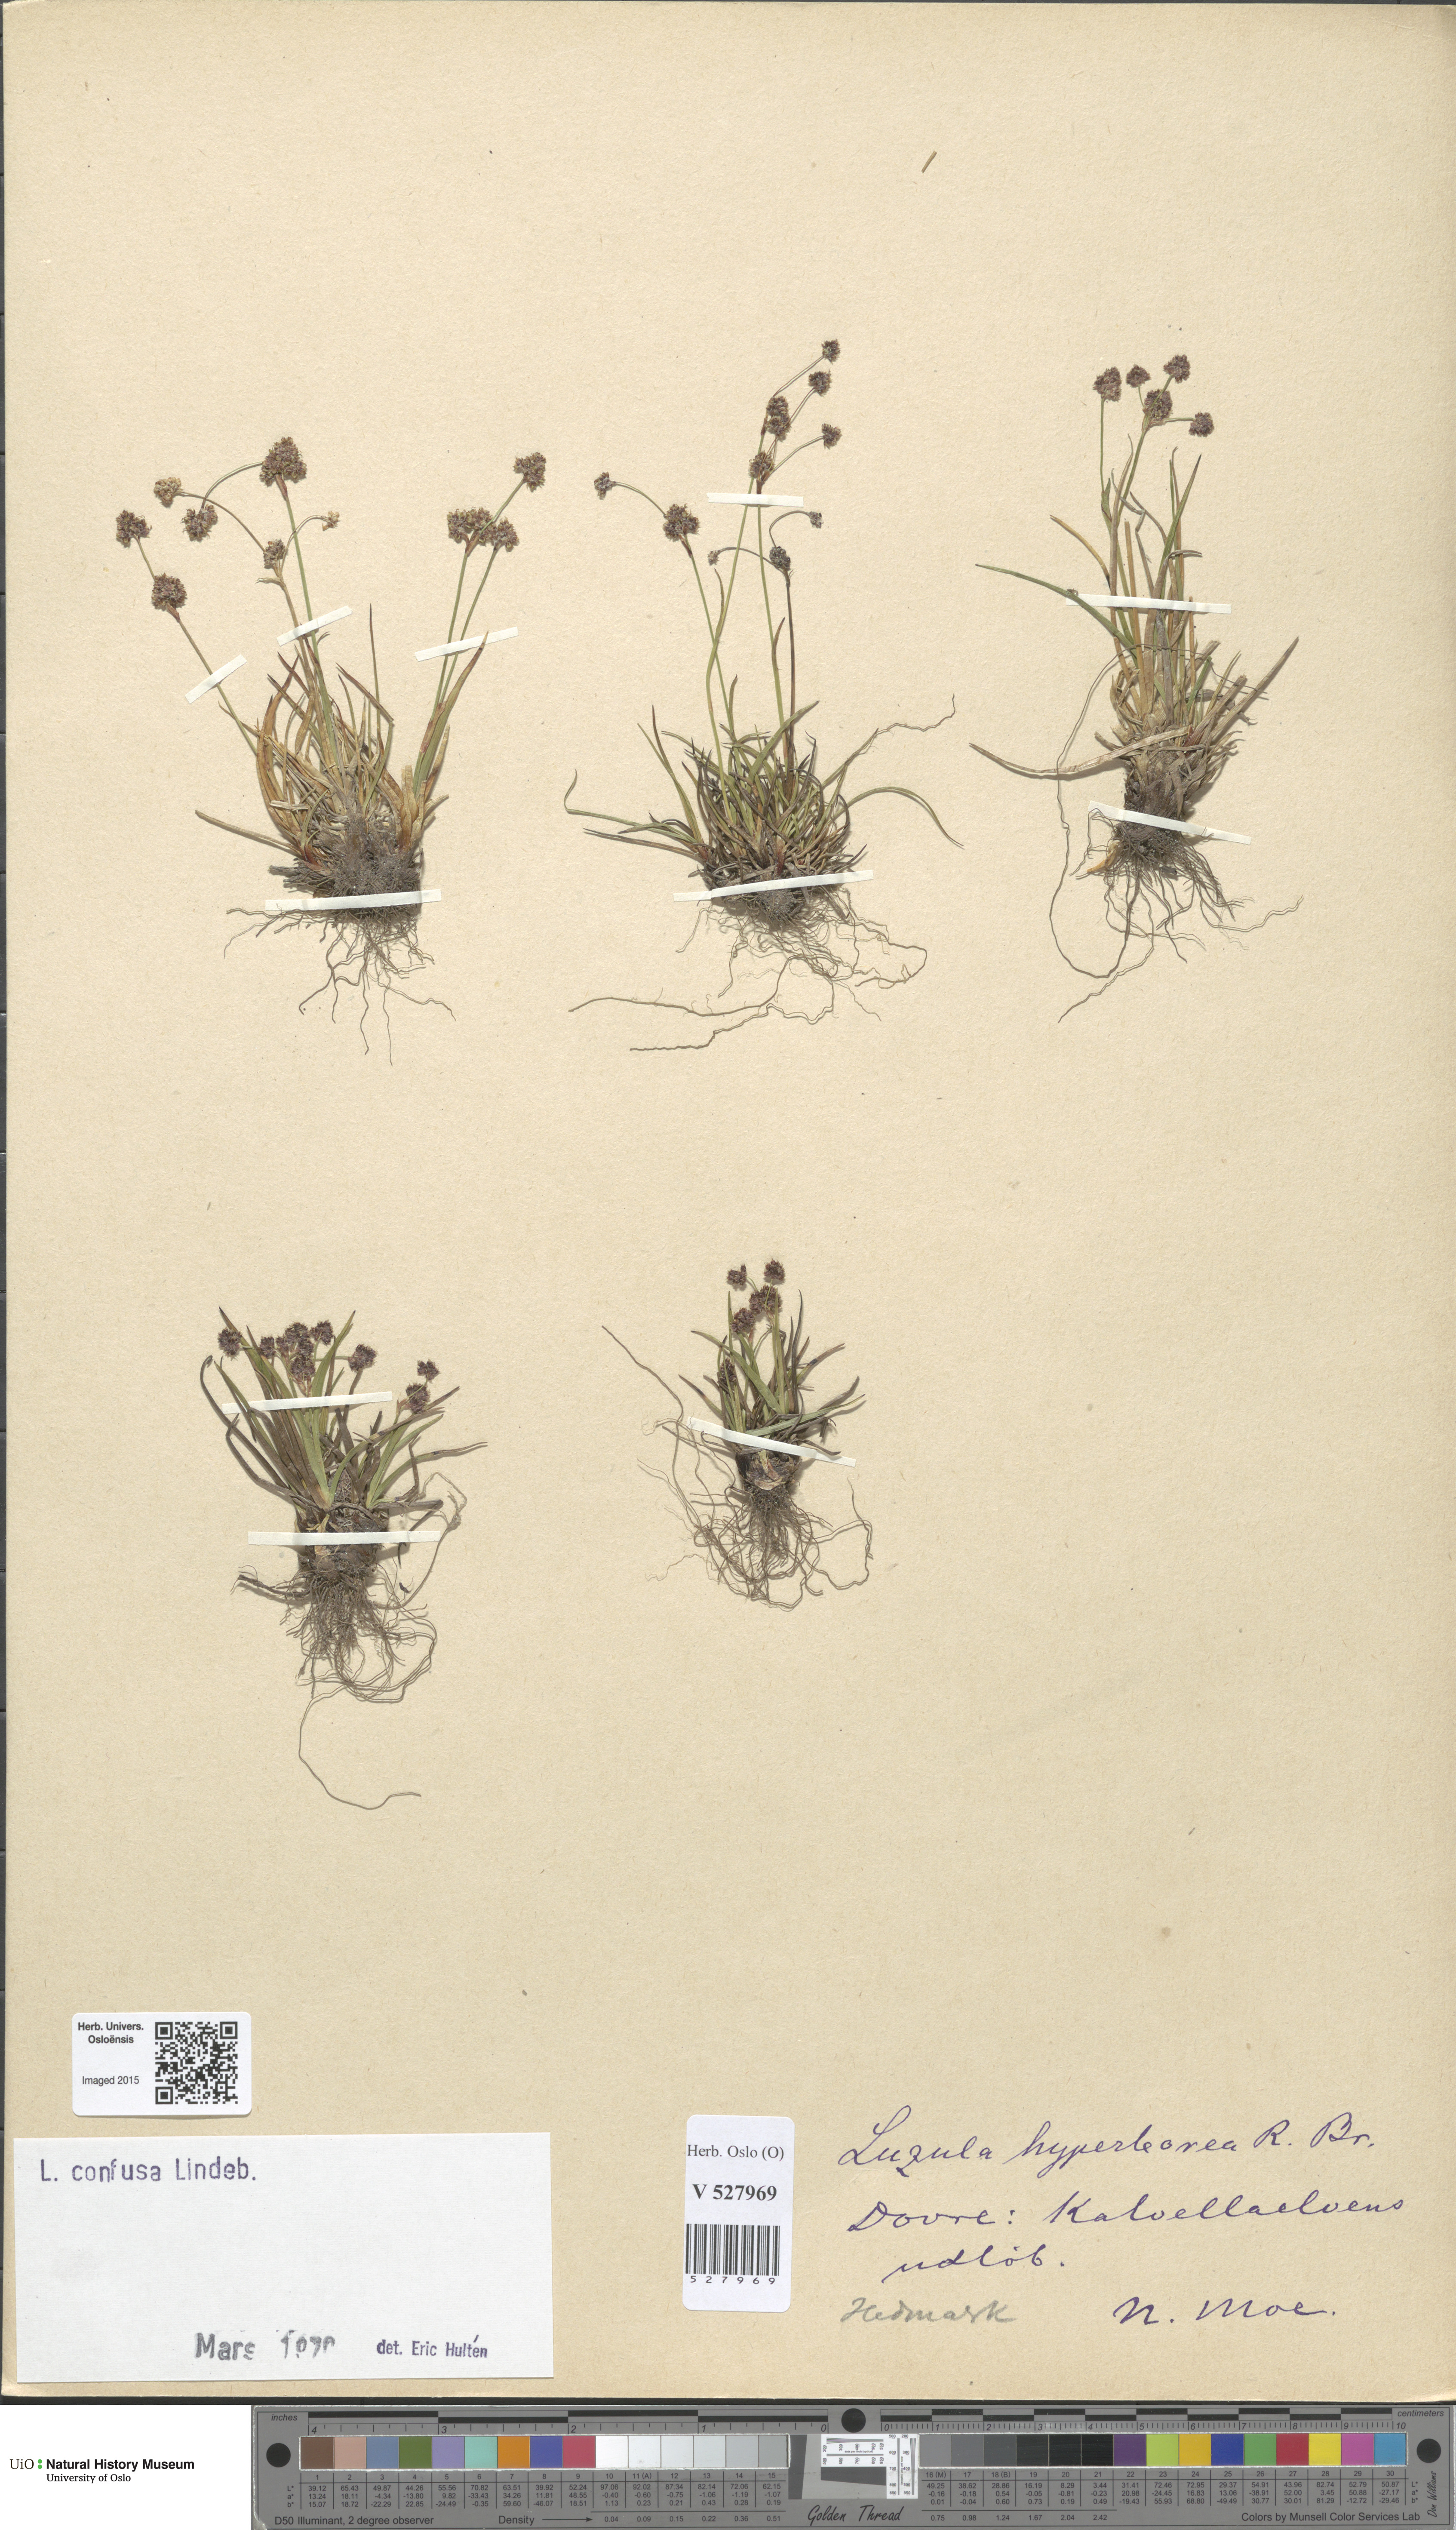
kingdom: Plantae
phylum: Tracheophyta
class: Liliopsida
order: Poales
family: Juncaceae
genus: Luzula
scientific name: Luzula confusa
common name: Northern wood rush
